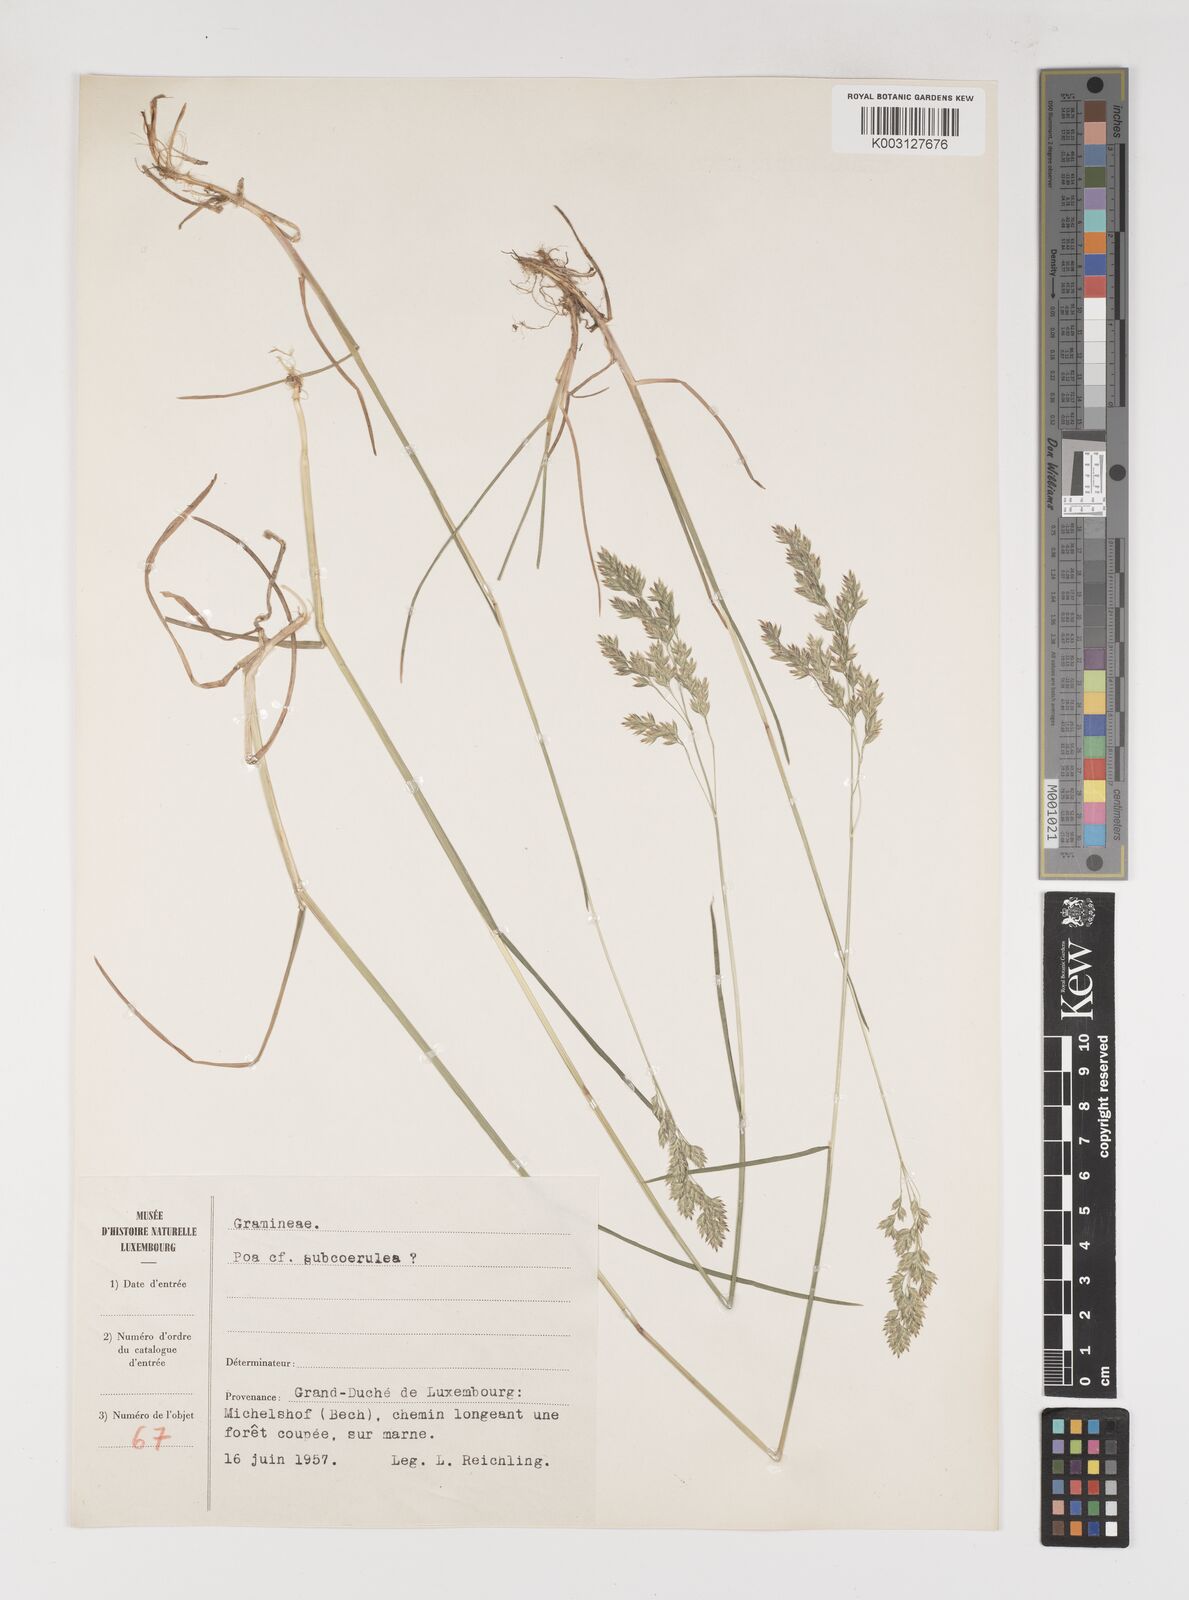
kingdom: Plantae
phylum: Tracheophyta
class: Liliopsida
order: Poales
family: Poaceae
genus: Poa
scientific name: Poa
